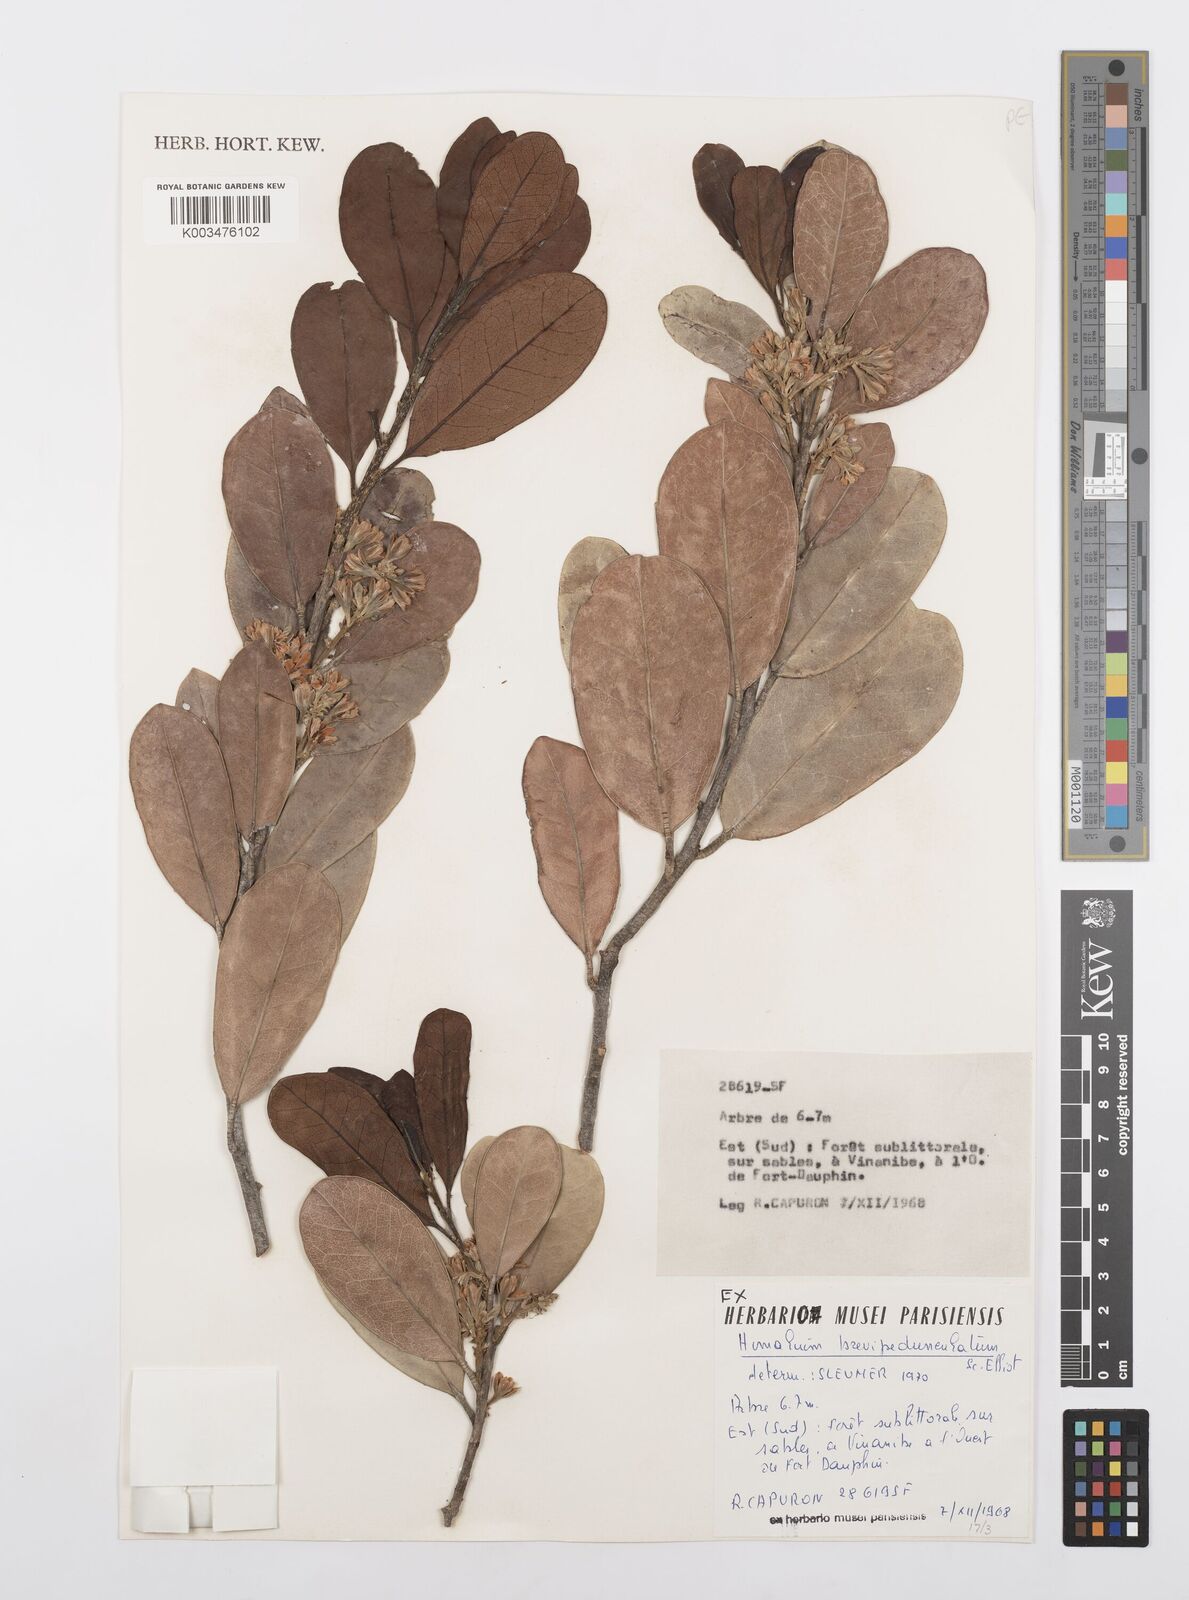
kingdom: Plantae
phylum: Tracheophyta
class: Magnoliopsida
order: Malpighiales
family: Salicaceae
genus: Homalium
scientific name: Homalium brevipedunculatum
